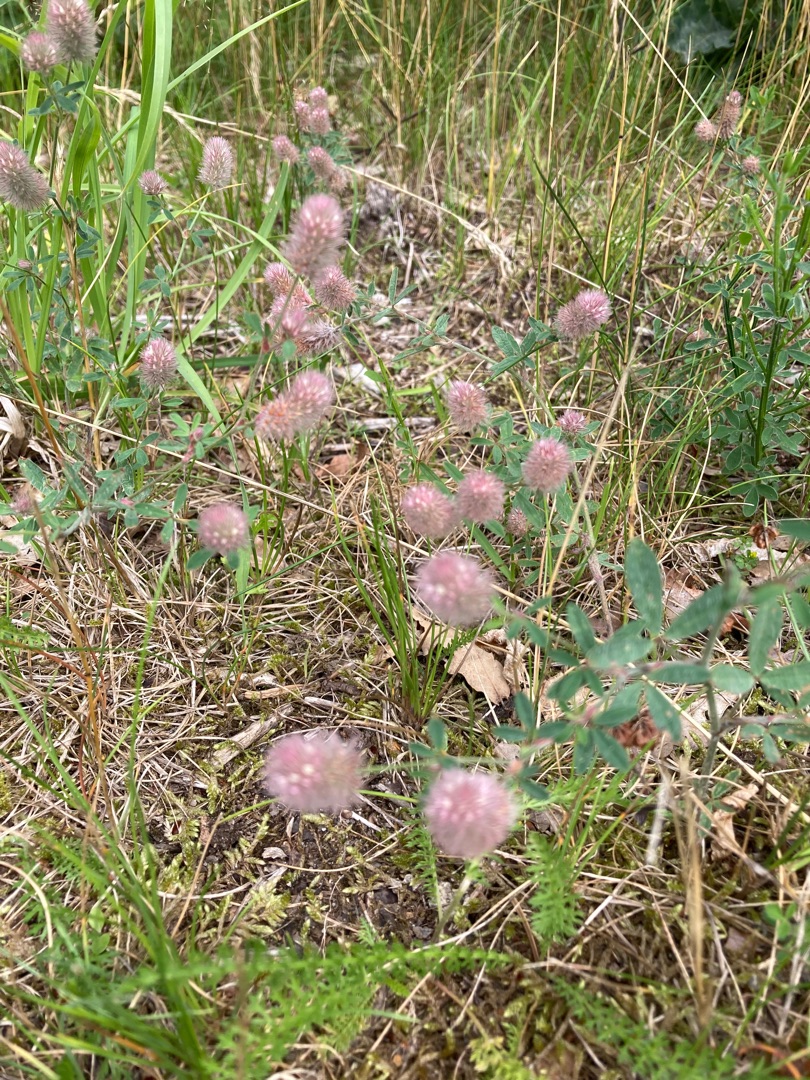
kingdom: Plantae
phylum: Tracheophyta
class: Magnoliopsida
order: Fabales
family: Fabaceae
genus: Trifolium
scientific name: Trifolium arvense
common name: Hare-kløver
